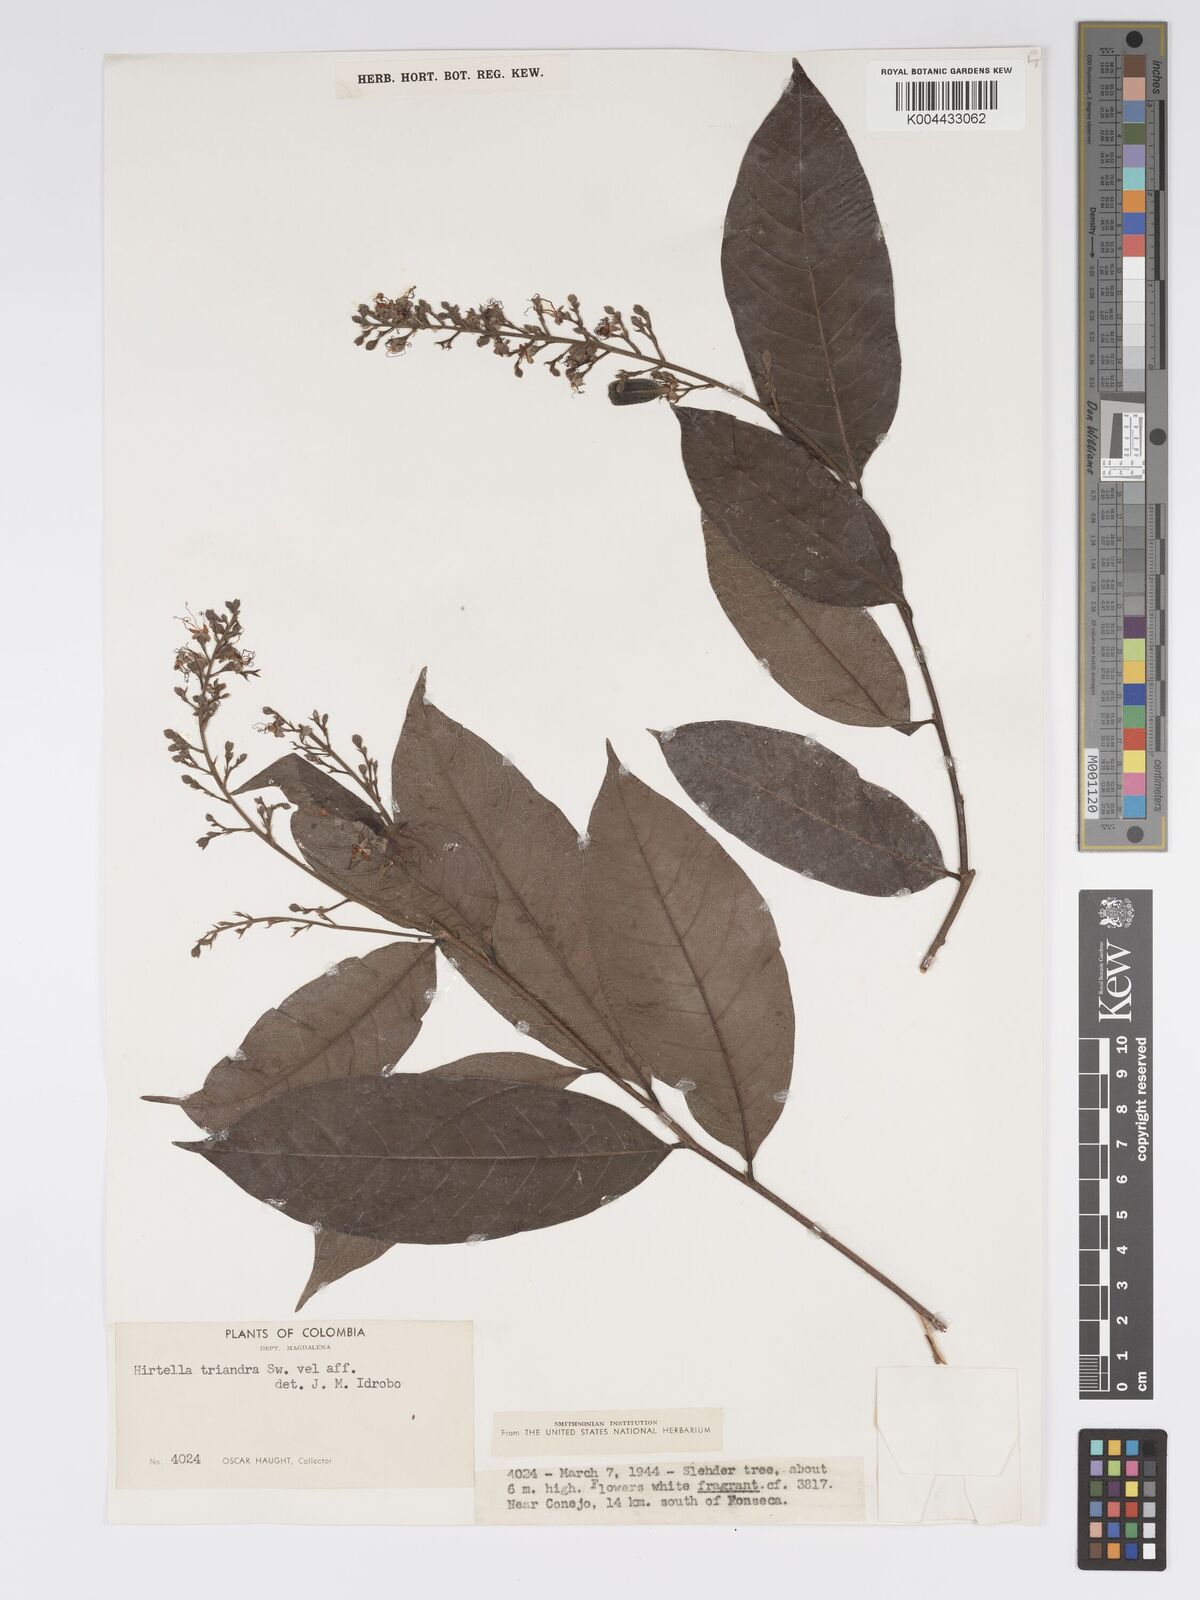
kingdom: Plantae
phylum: Tracheophyta
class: Magnoliopsida
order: Malpighiales
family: Chrysobalanaceae
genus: Hirtella
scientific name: Hirtella triandra
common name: Hairy plum
